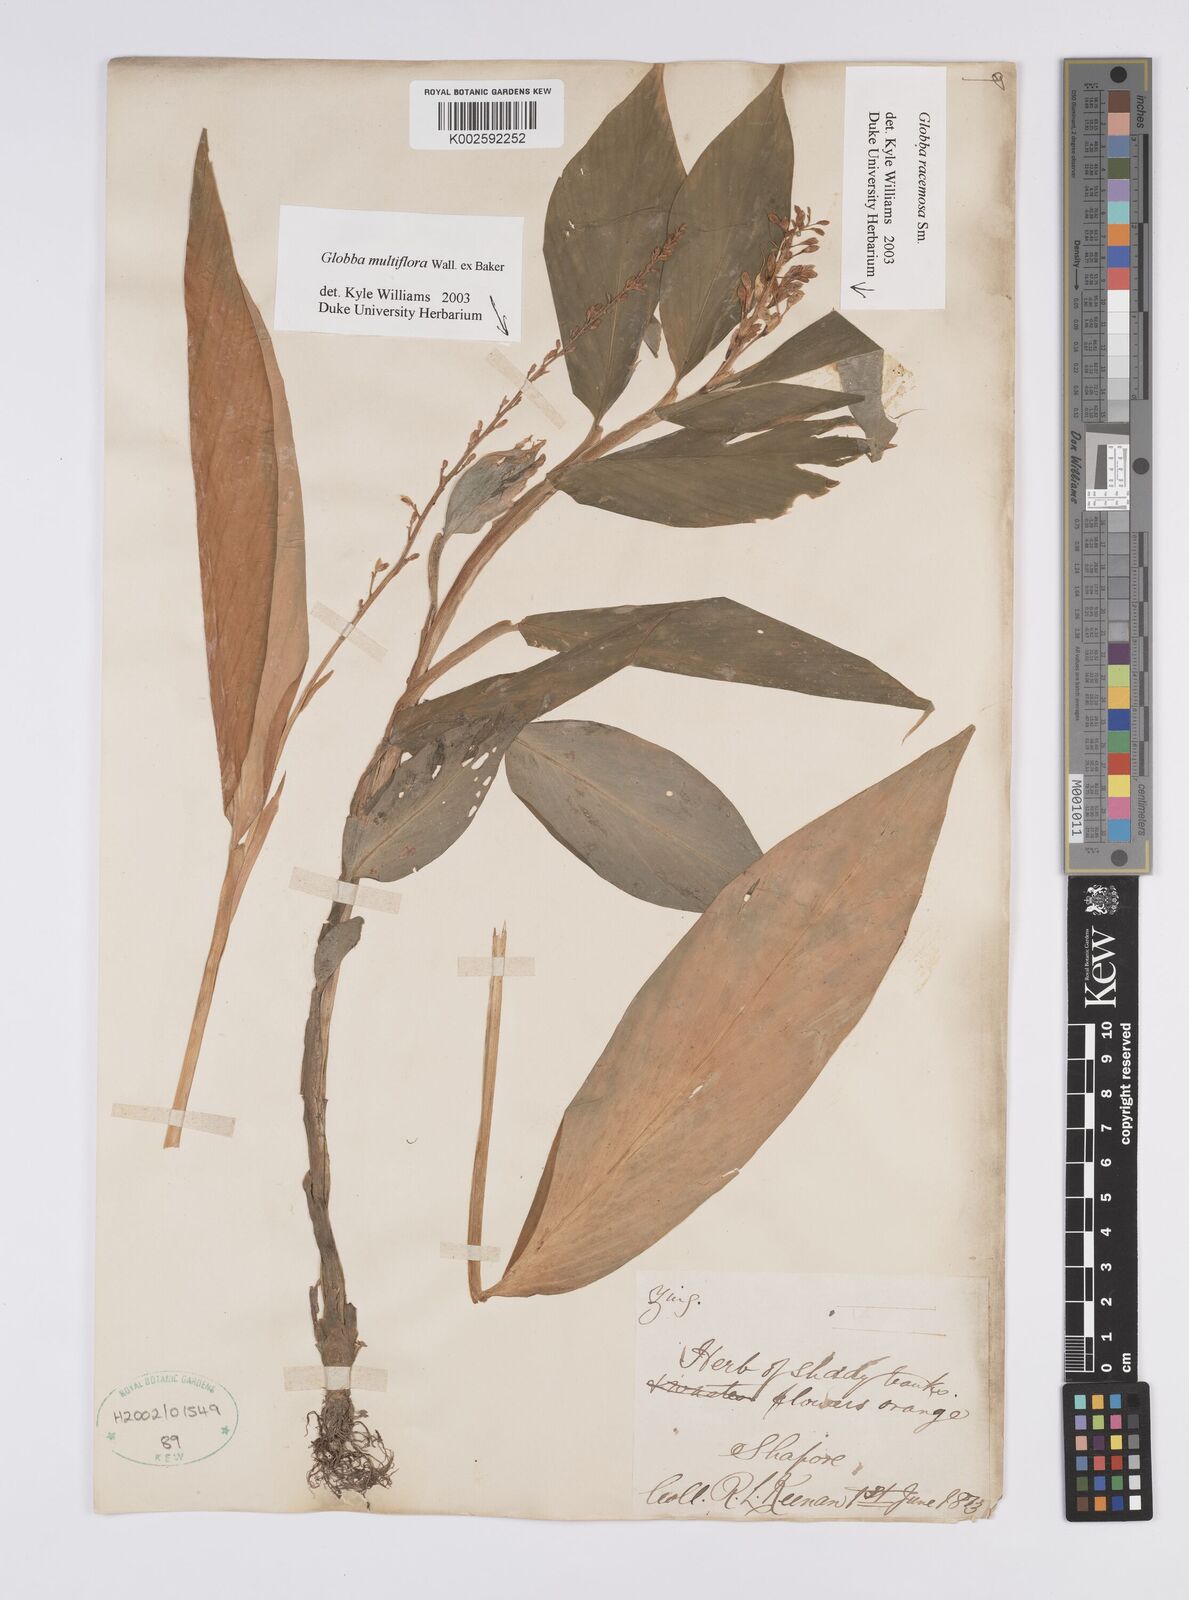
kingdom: Plantae
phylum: Tracheophyta
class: Liliopsida
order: Zingiberales
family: Zingiberaceae
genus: Globba
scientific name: Globba multiflora
